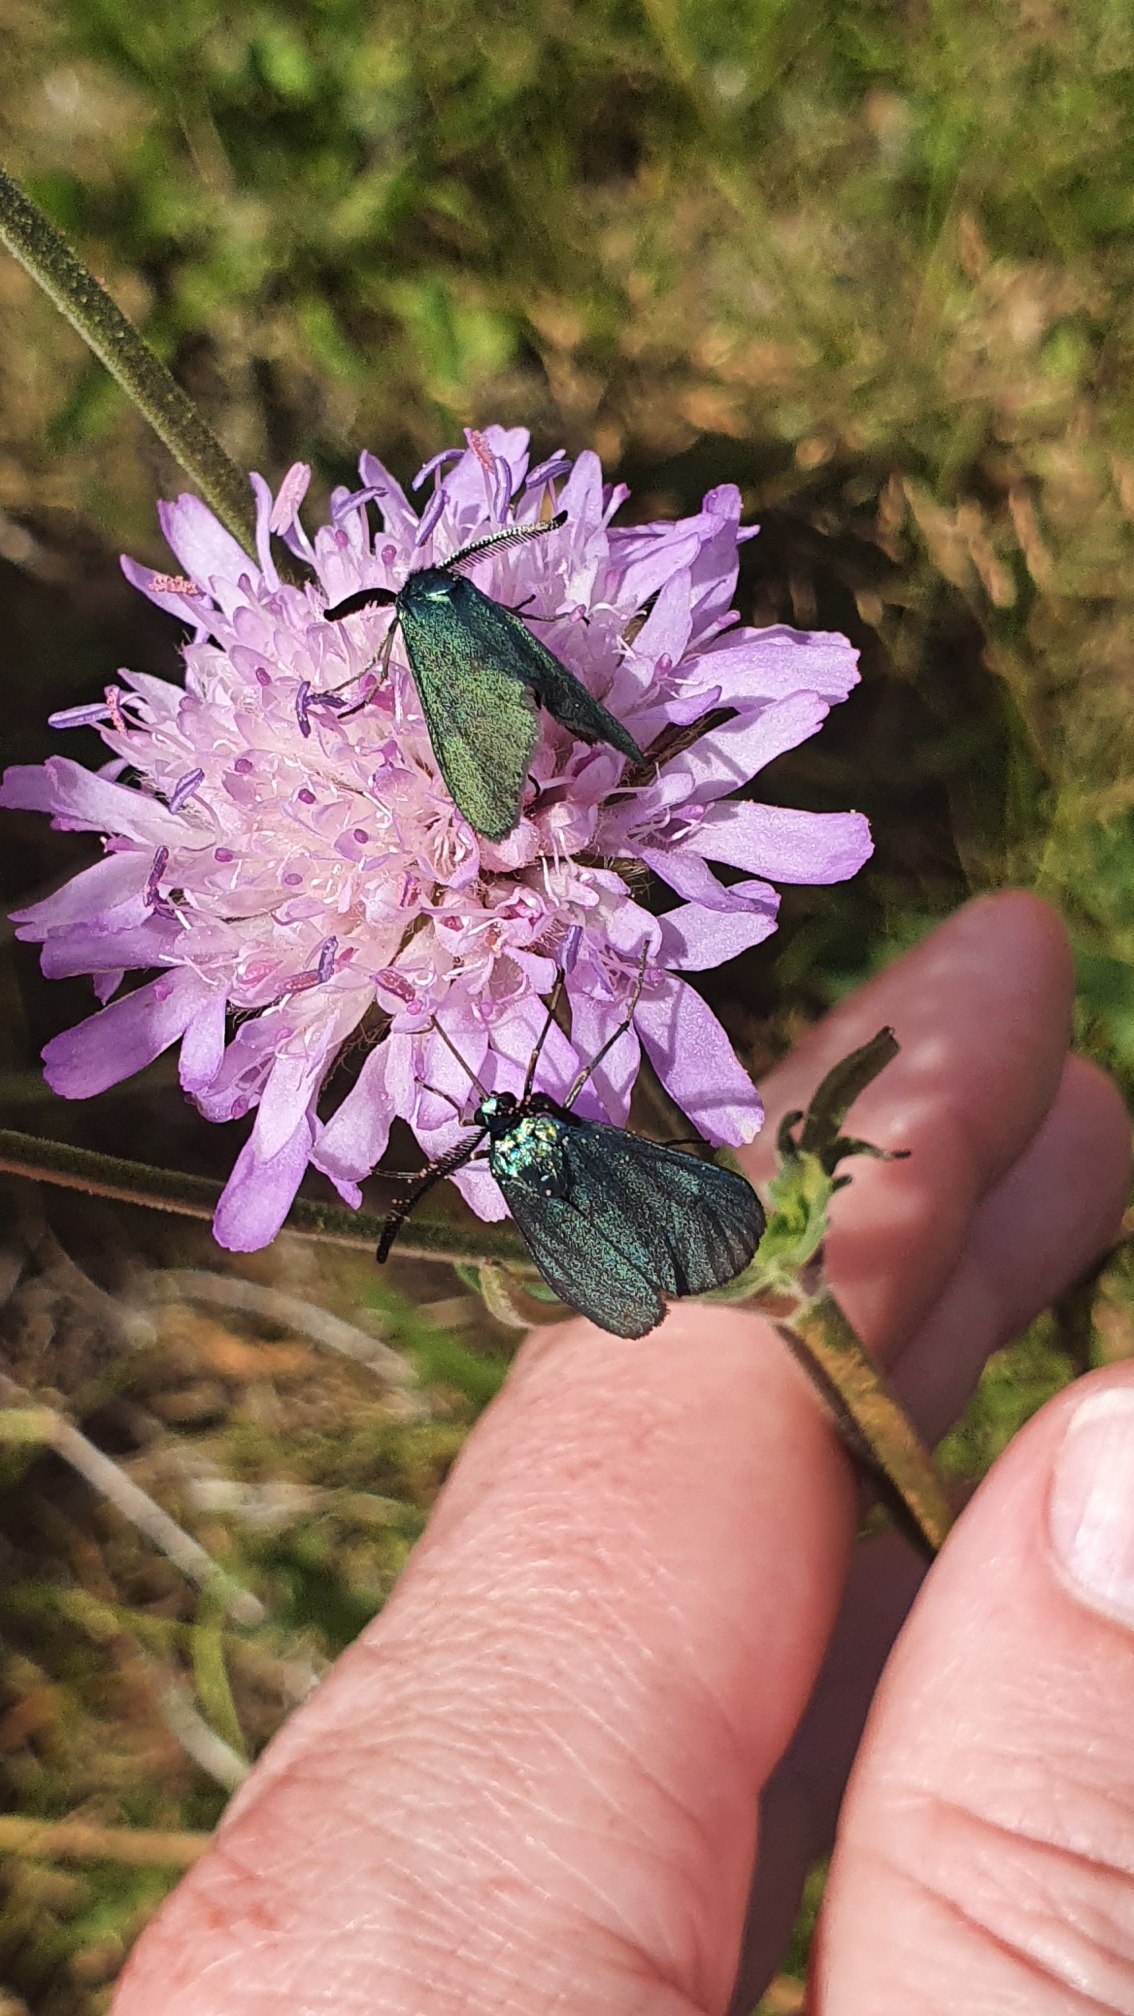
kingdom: Animalia
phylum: Arthropoda
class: Insecta
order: Lepidoptera
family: Zygaenidae
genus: Adscita
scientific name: Adscita statices
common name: Metalvinge
